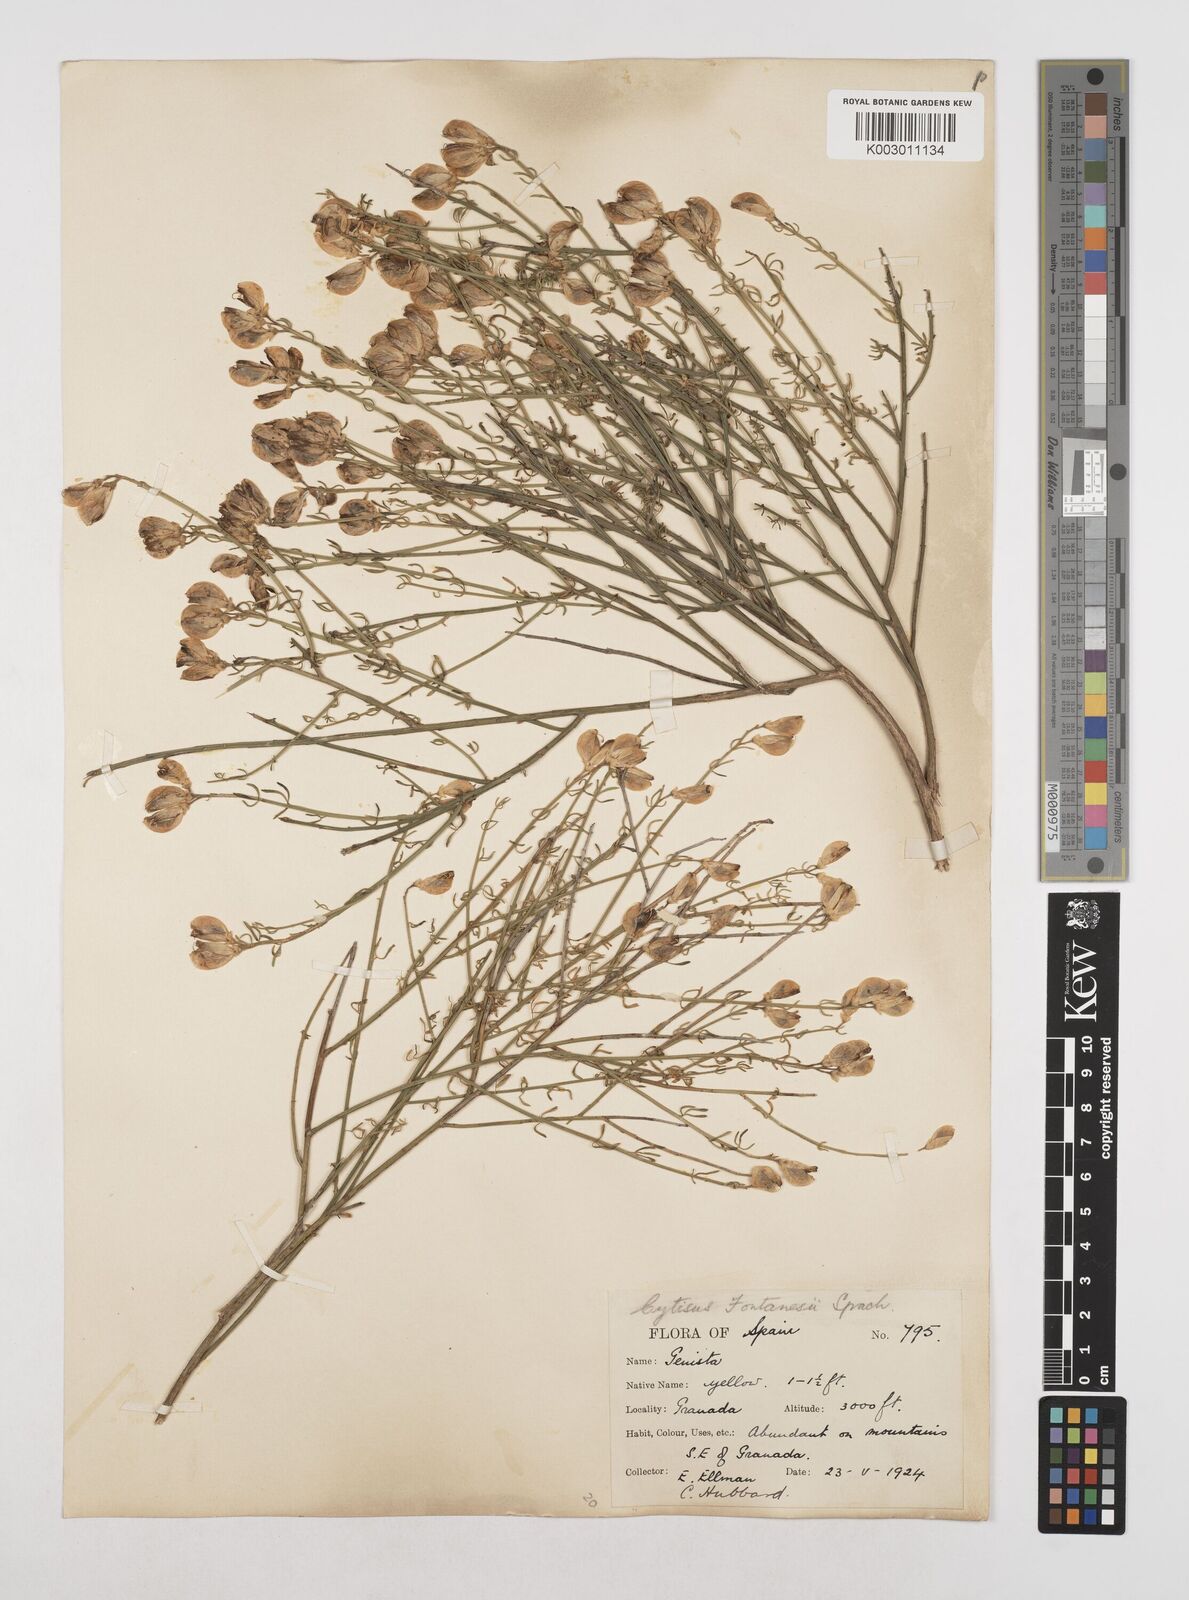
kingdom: Plantae
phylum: Tracheophyta
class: Magnoliopsida
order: Fabales
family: Fabaceae
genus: Cytisus
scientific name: Cytisus fontanesii
